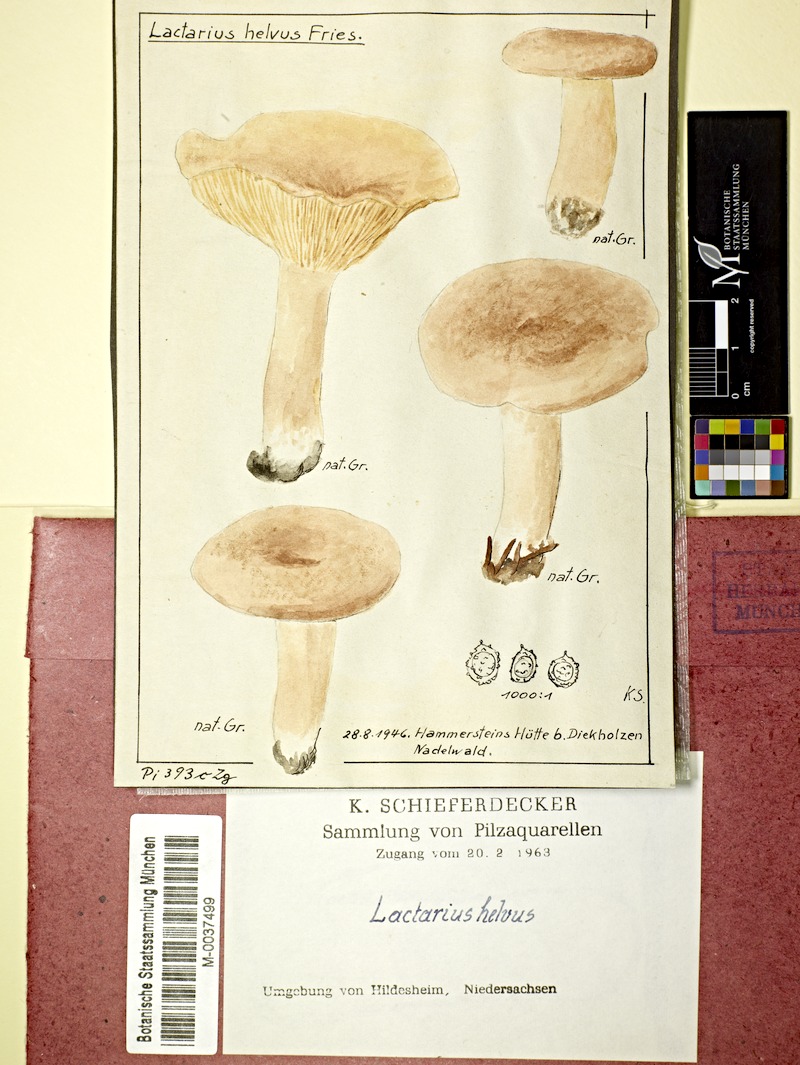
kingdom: Fungi
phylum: Basidiomycota
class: Agaricomycetes
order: Russulales
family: Russulaceae
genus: Lactarius
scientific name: Lactarius helvus
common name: Fenugreek milkcap
